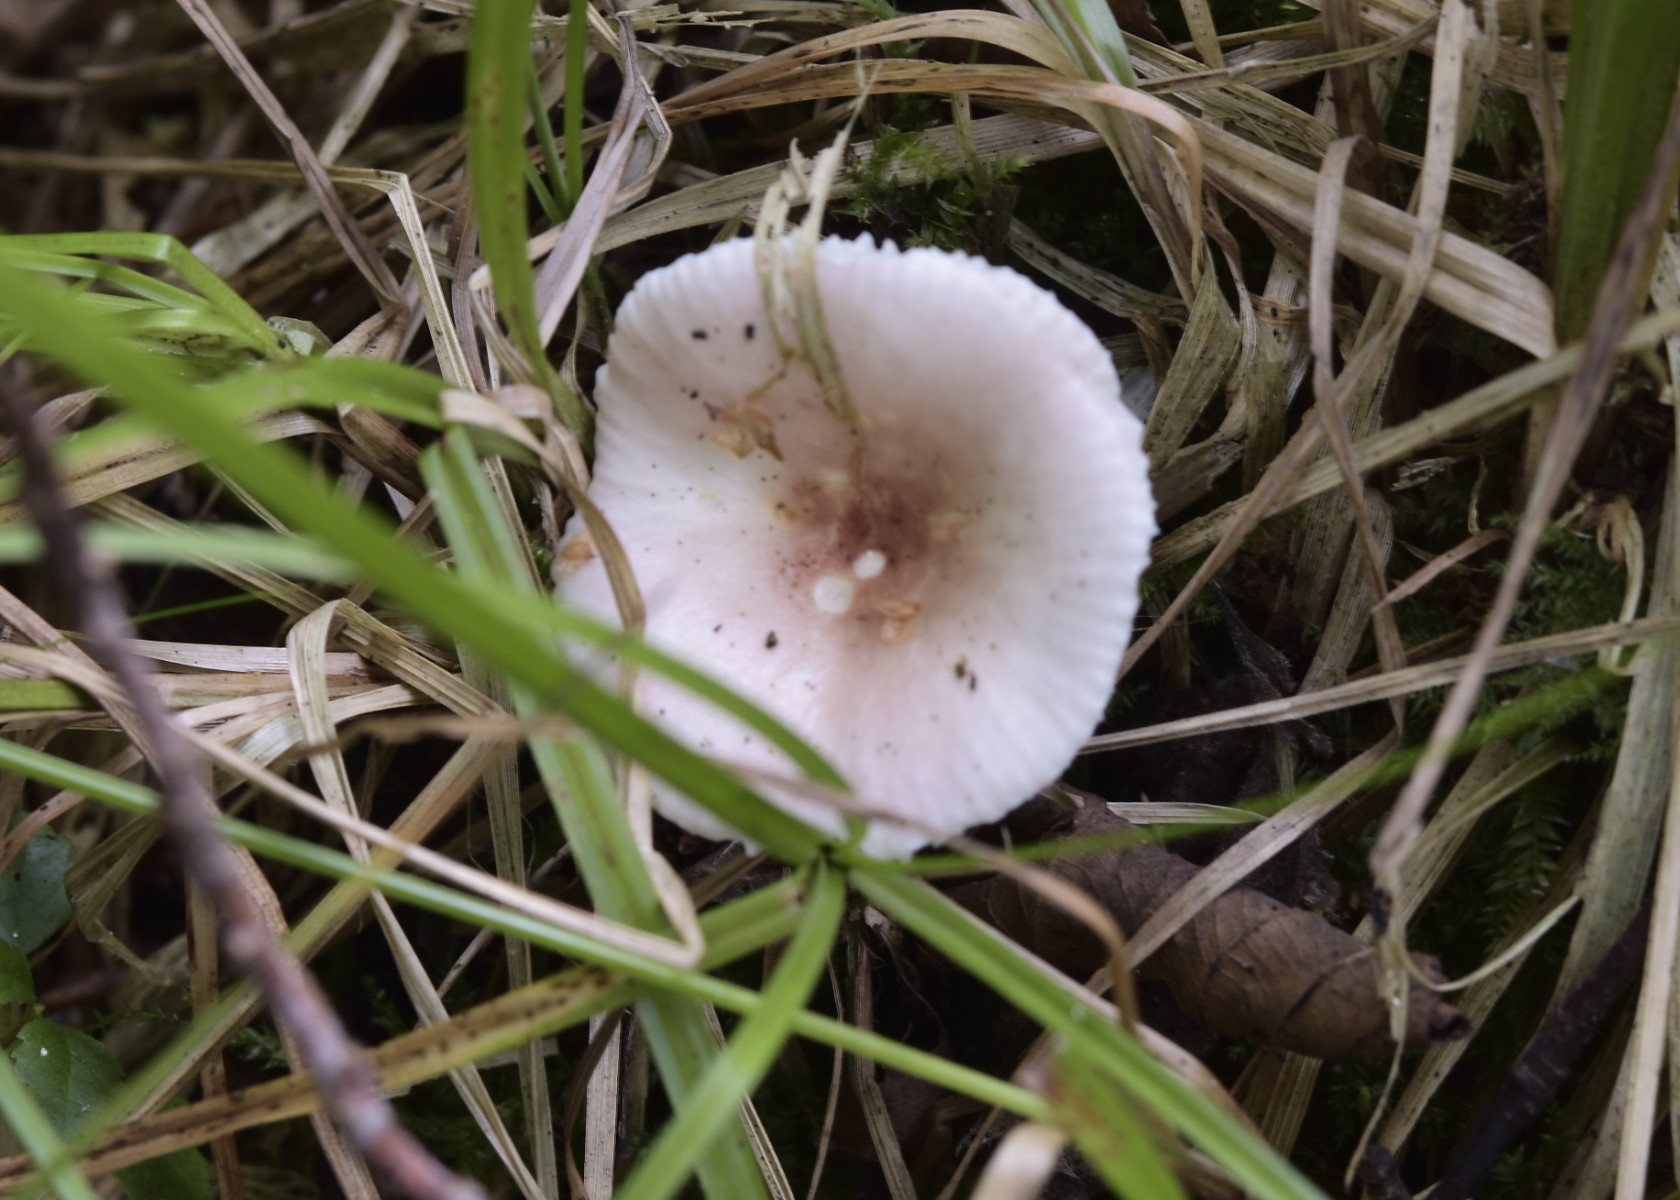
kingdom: Fungi
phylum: Basidiomycota
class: Agaricomycetes
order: Russulales
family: Russulaceae
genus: Russula
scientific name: Russula betularum
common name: bleg gift-skørhat
